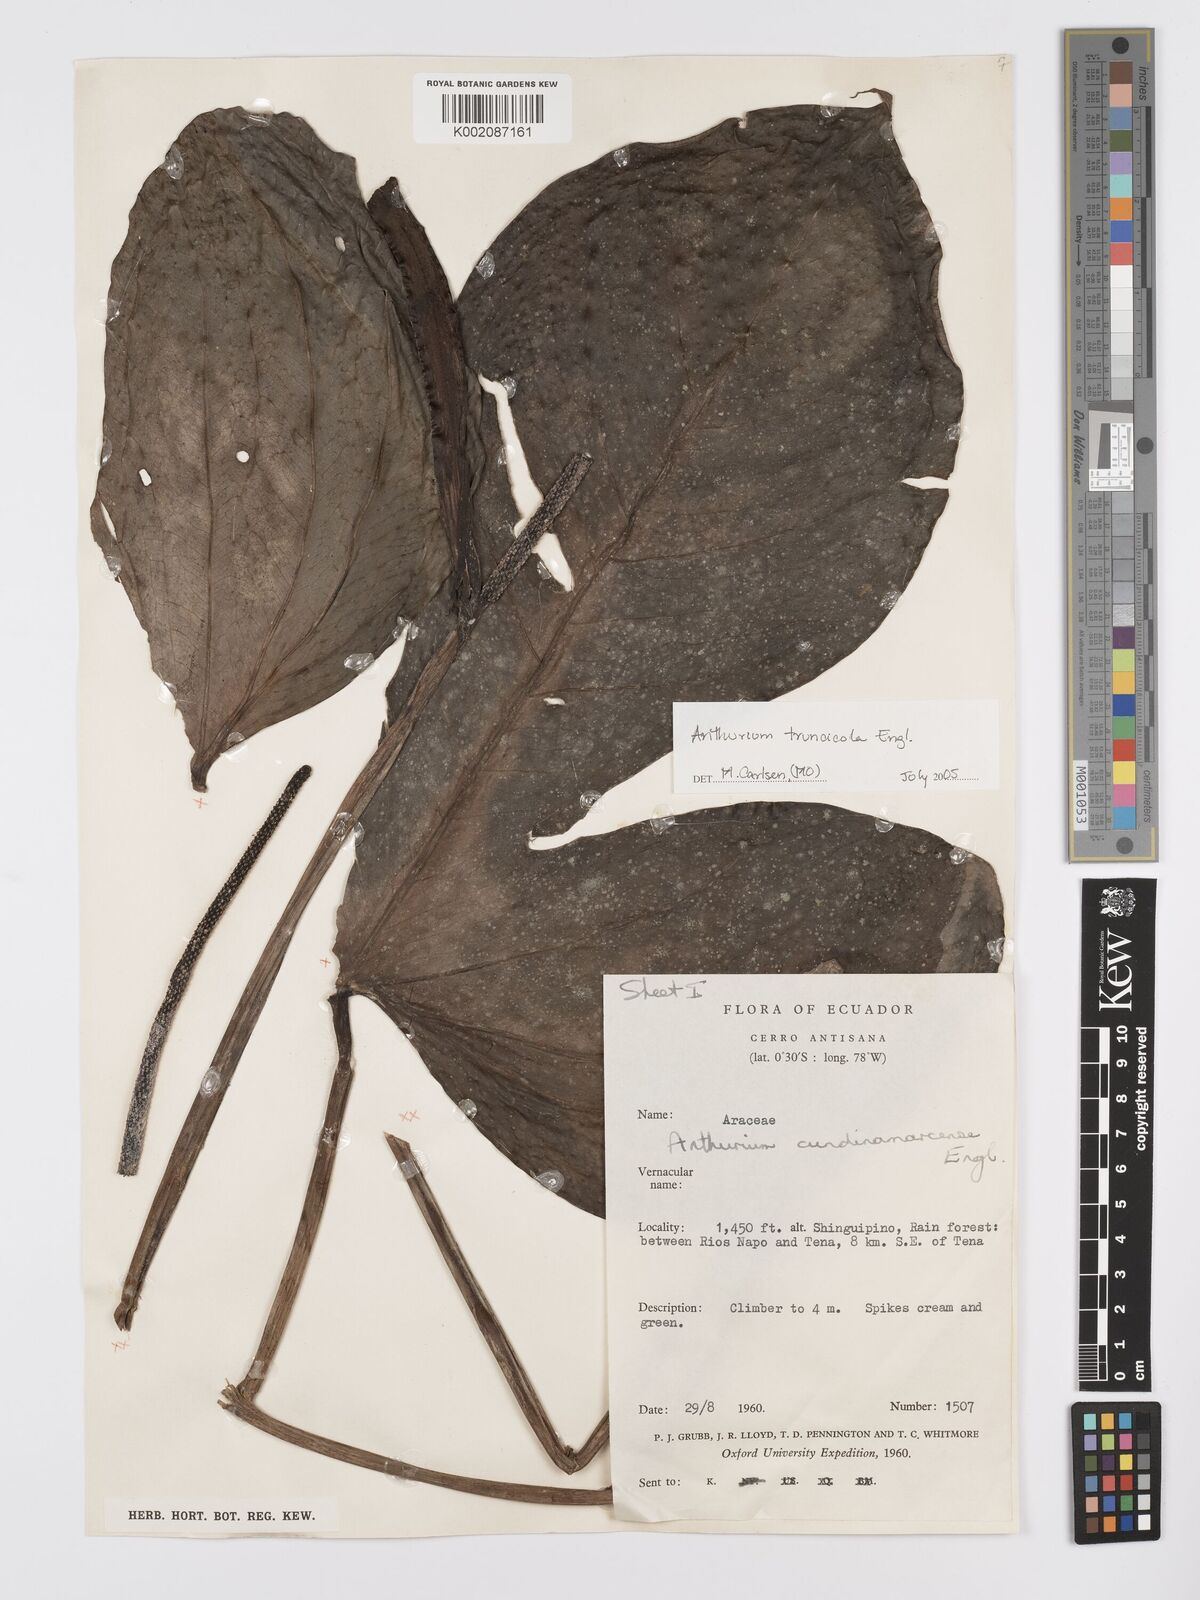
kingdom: Plantae
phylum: Tracheophyta
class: Liliopsida
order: Alismatales
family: Araceae
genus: Anthurium
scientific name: Anthurium truncicola
